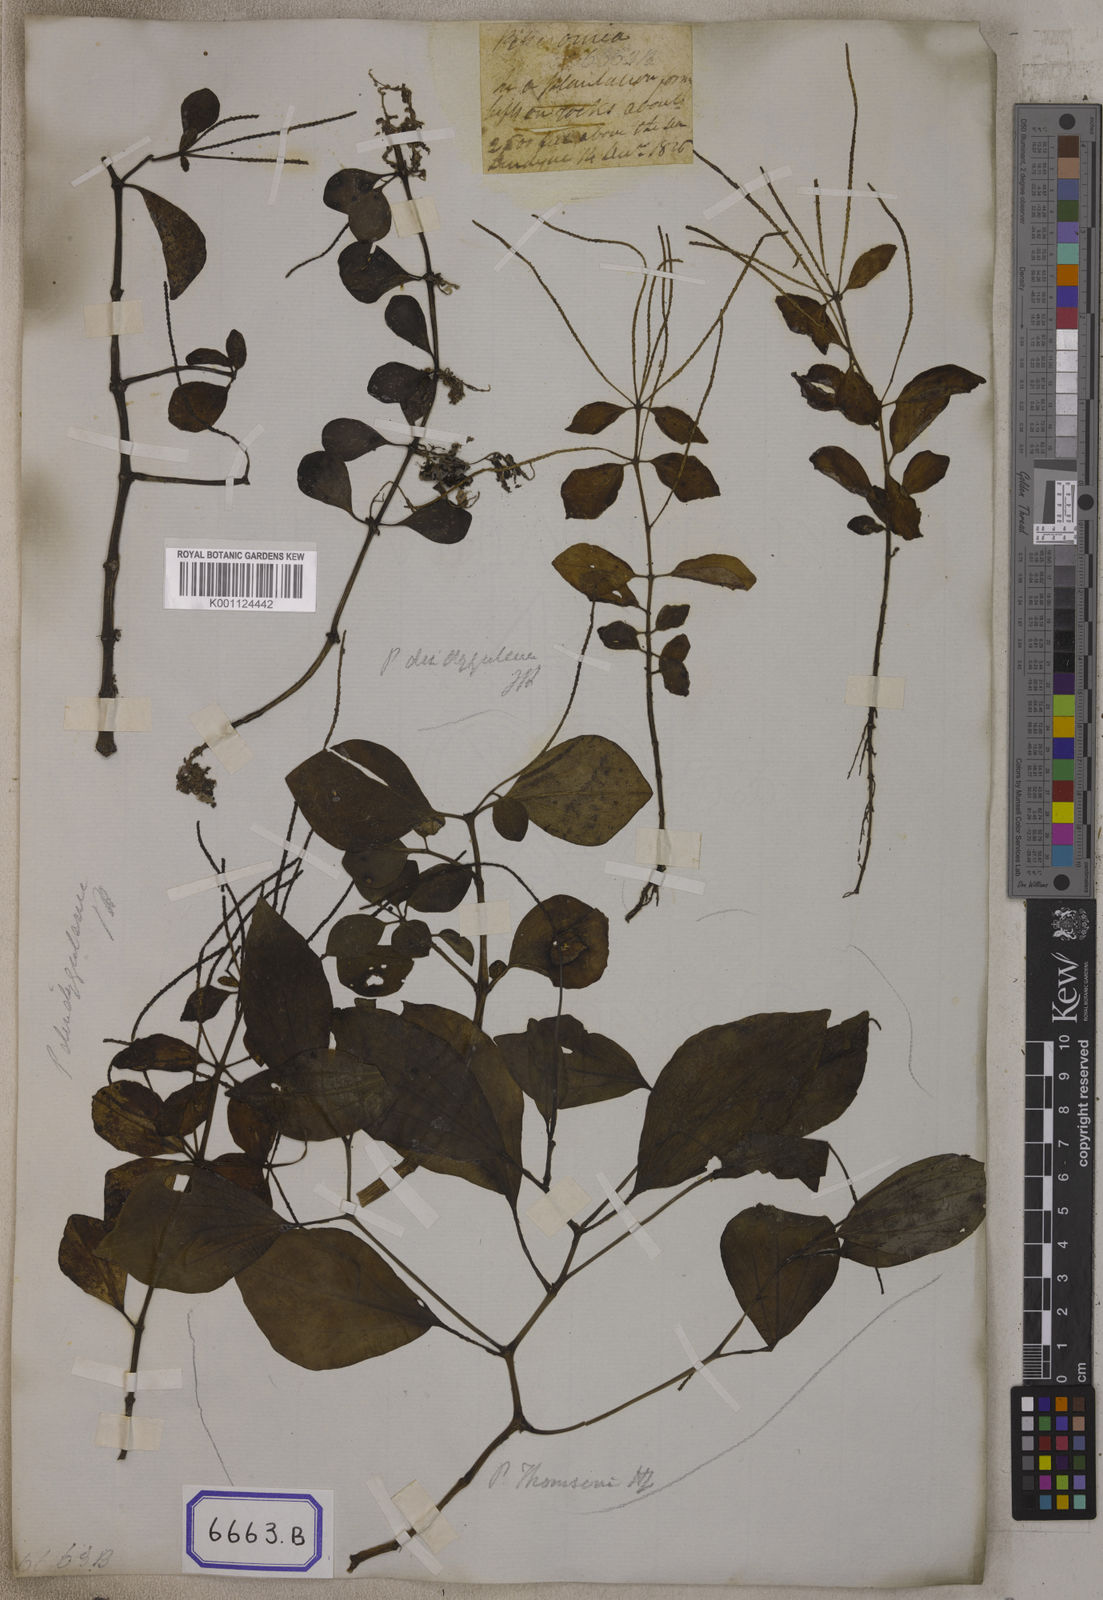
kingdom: Plantae
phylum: Tracheophyta
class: Magnoliopsida
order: Piperales
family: Piperaceae
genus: Peperomia
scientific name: Peperomia leptostachya
